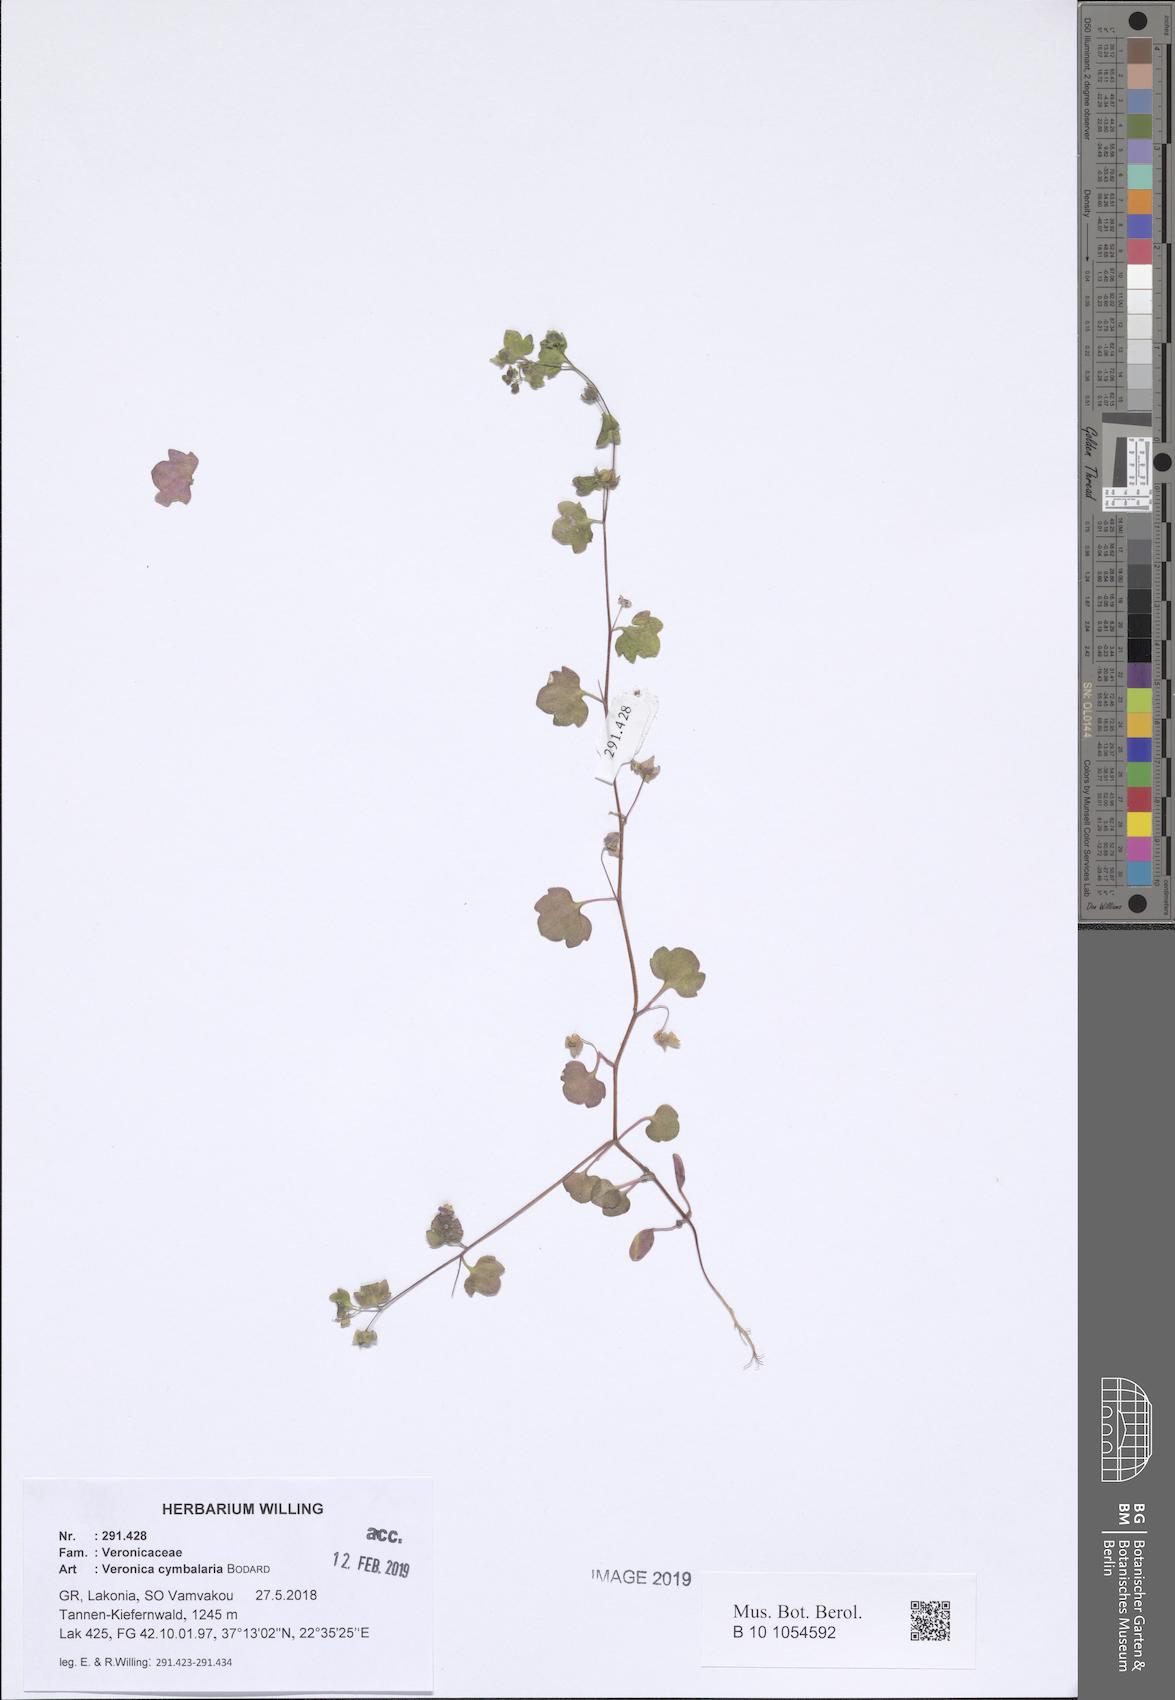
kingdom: Plantae
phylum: Tracheophyta
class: Magnoliopsida
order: Lamiales
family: Plantaginaceae
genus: Veronica
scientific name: Veronica cymbalaria
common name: Pale speedwell
